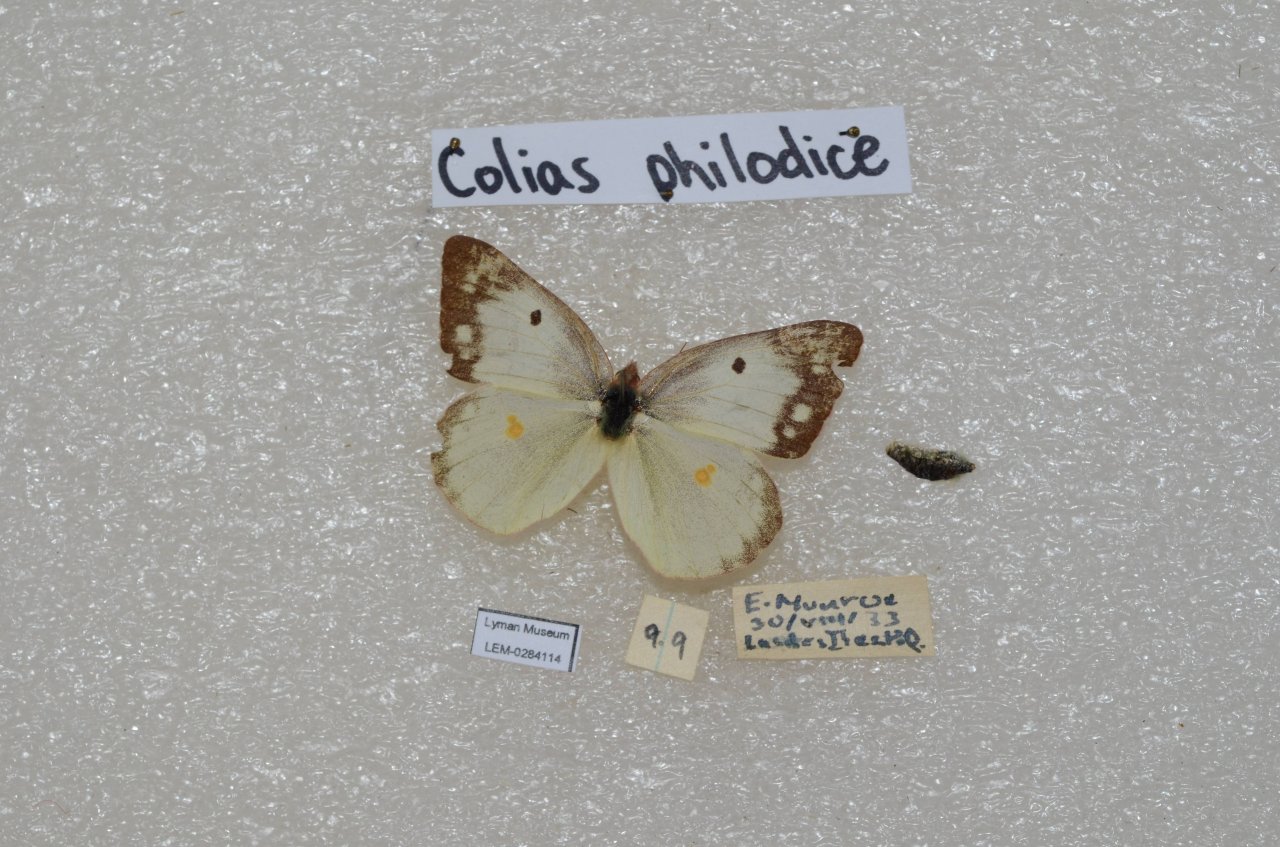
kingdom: Animalia
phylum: Arthropoda
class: Insecta
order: Lepidoptera
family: Pieridae
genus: Colias
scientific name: Colias philodice
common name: Clouded Sulphur
